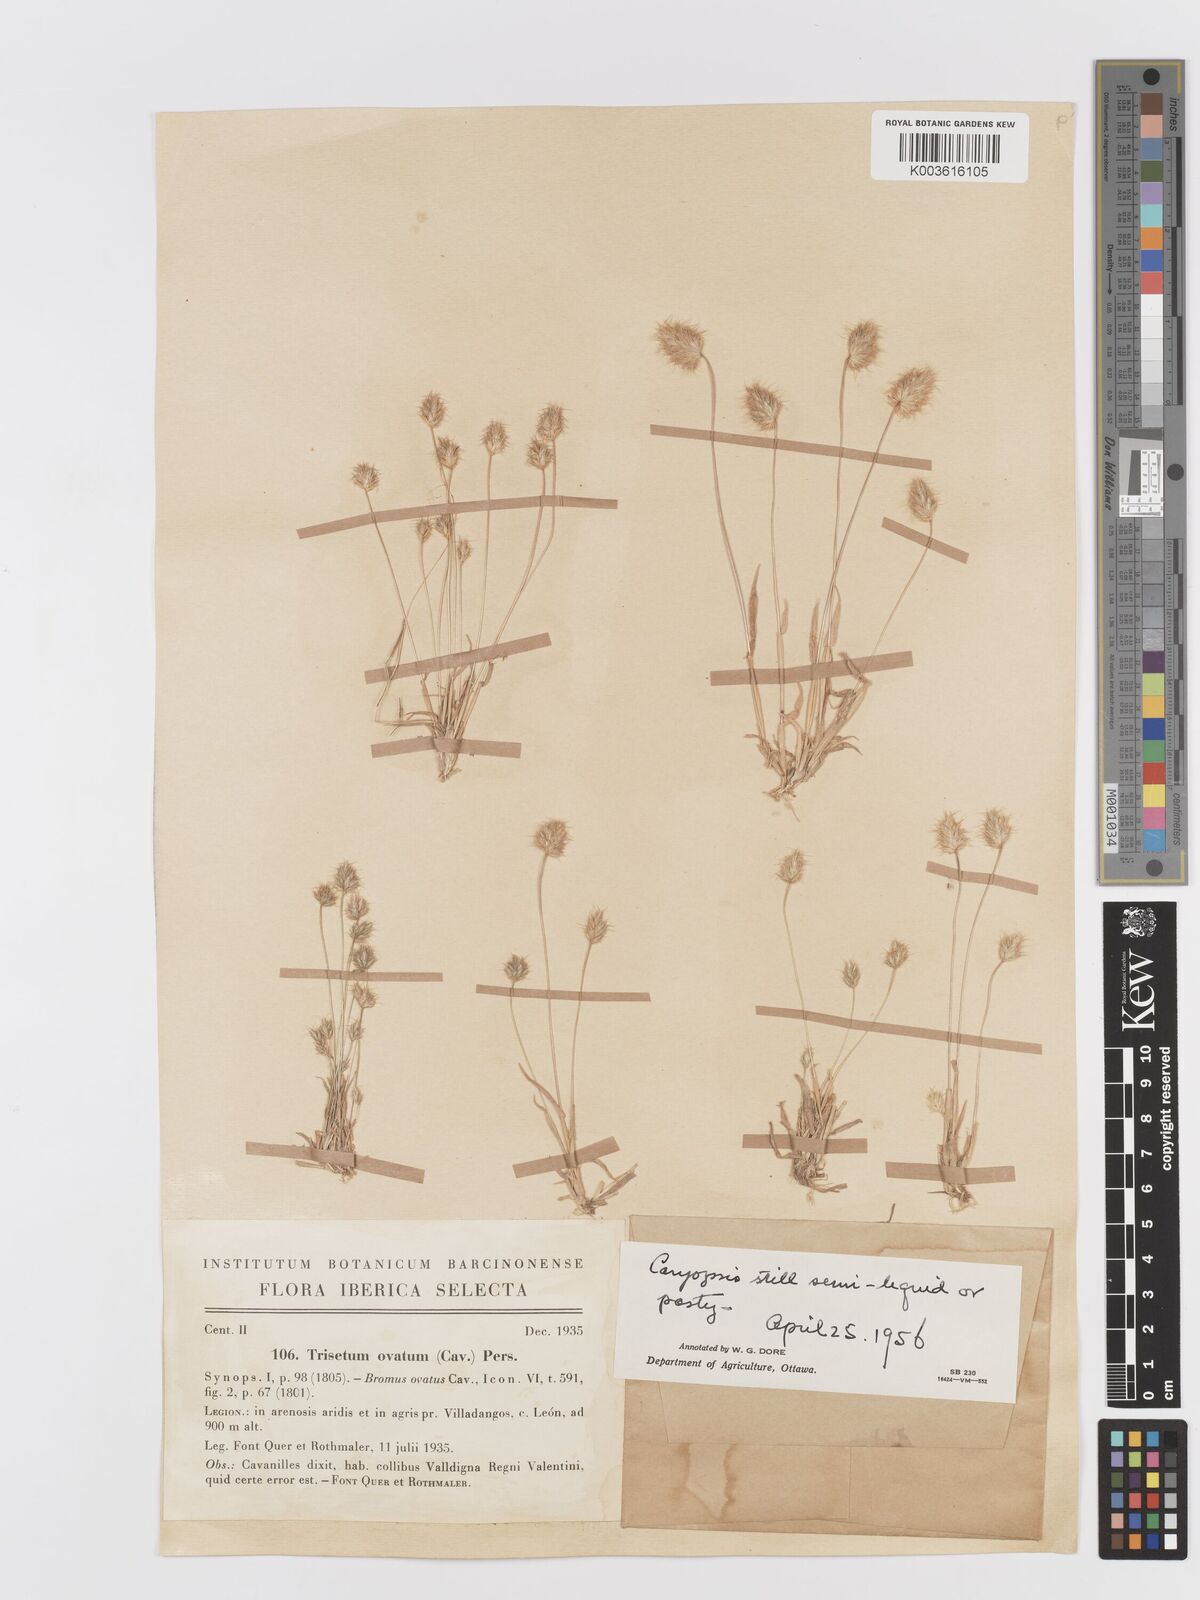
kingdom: Plantae
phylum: Tracheophyta
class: Liliopsida
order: Poales
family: Poaceae
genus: Trisetaria
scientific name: Trisetaria ovata
